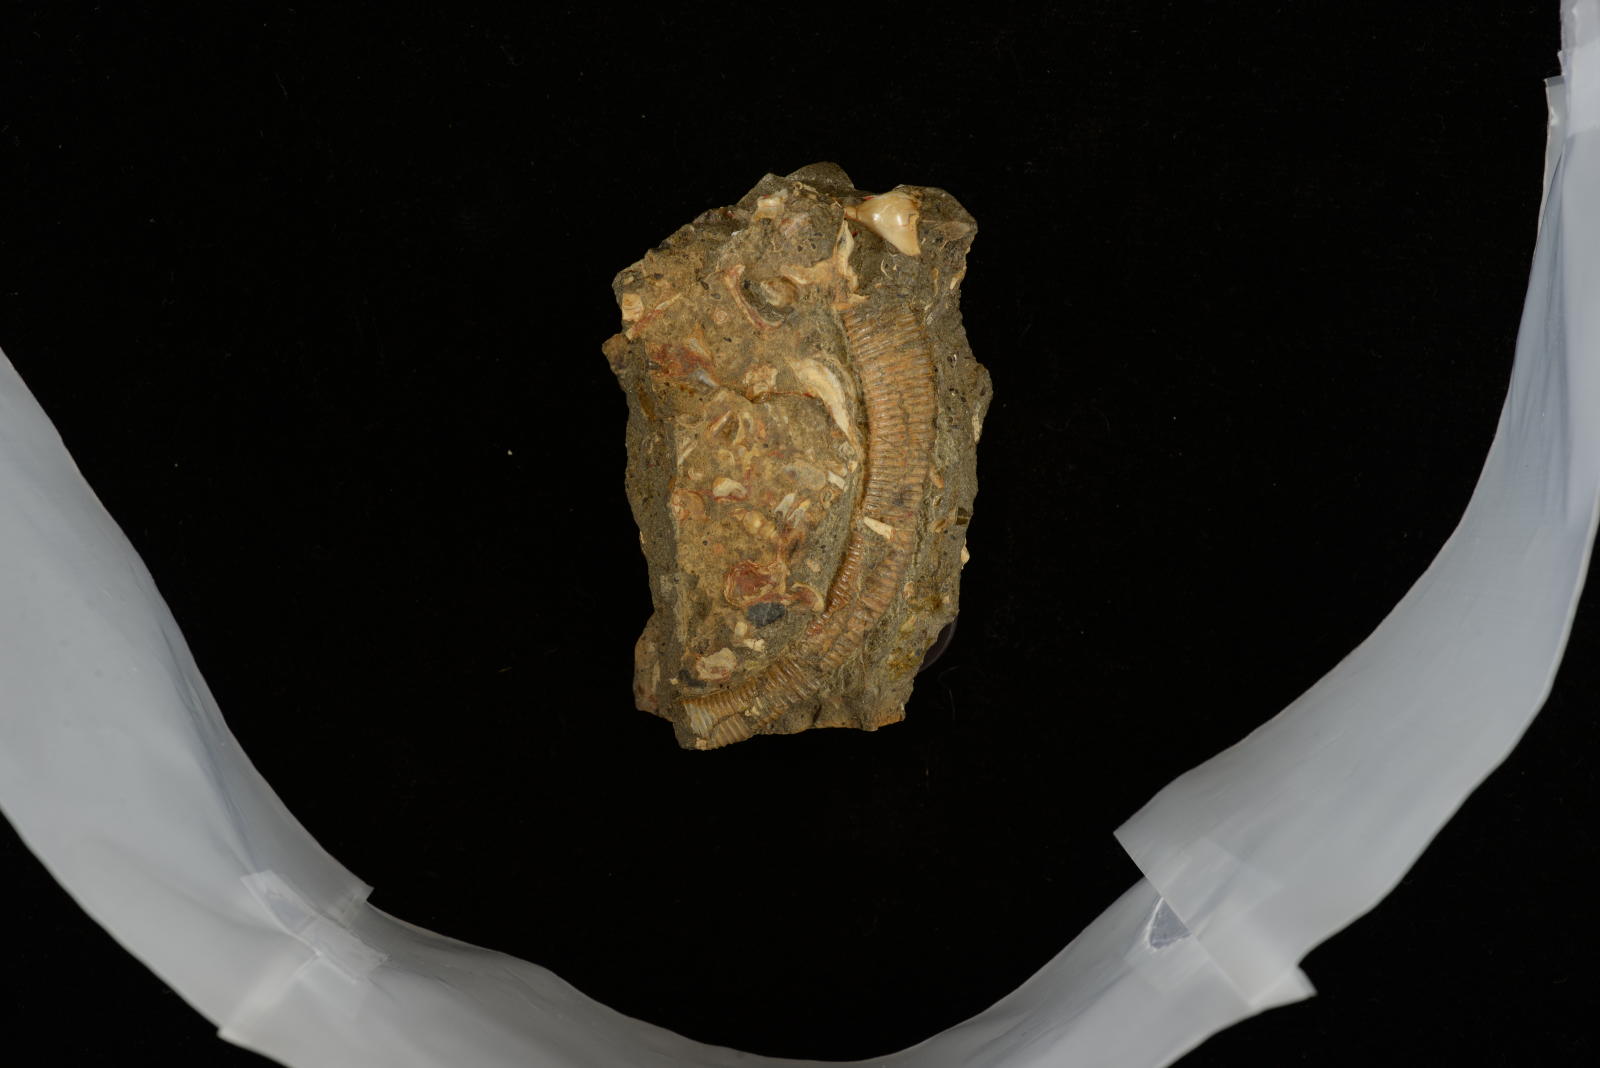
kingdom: Animalia
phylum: Mollusca
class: Cephalopoda
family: Diplomoceratidae
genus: Scalarites
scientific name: Scalarites mihoensis
